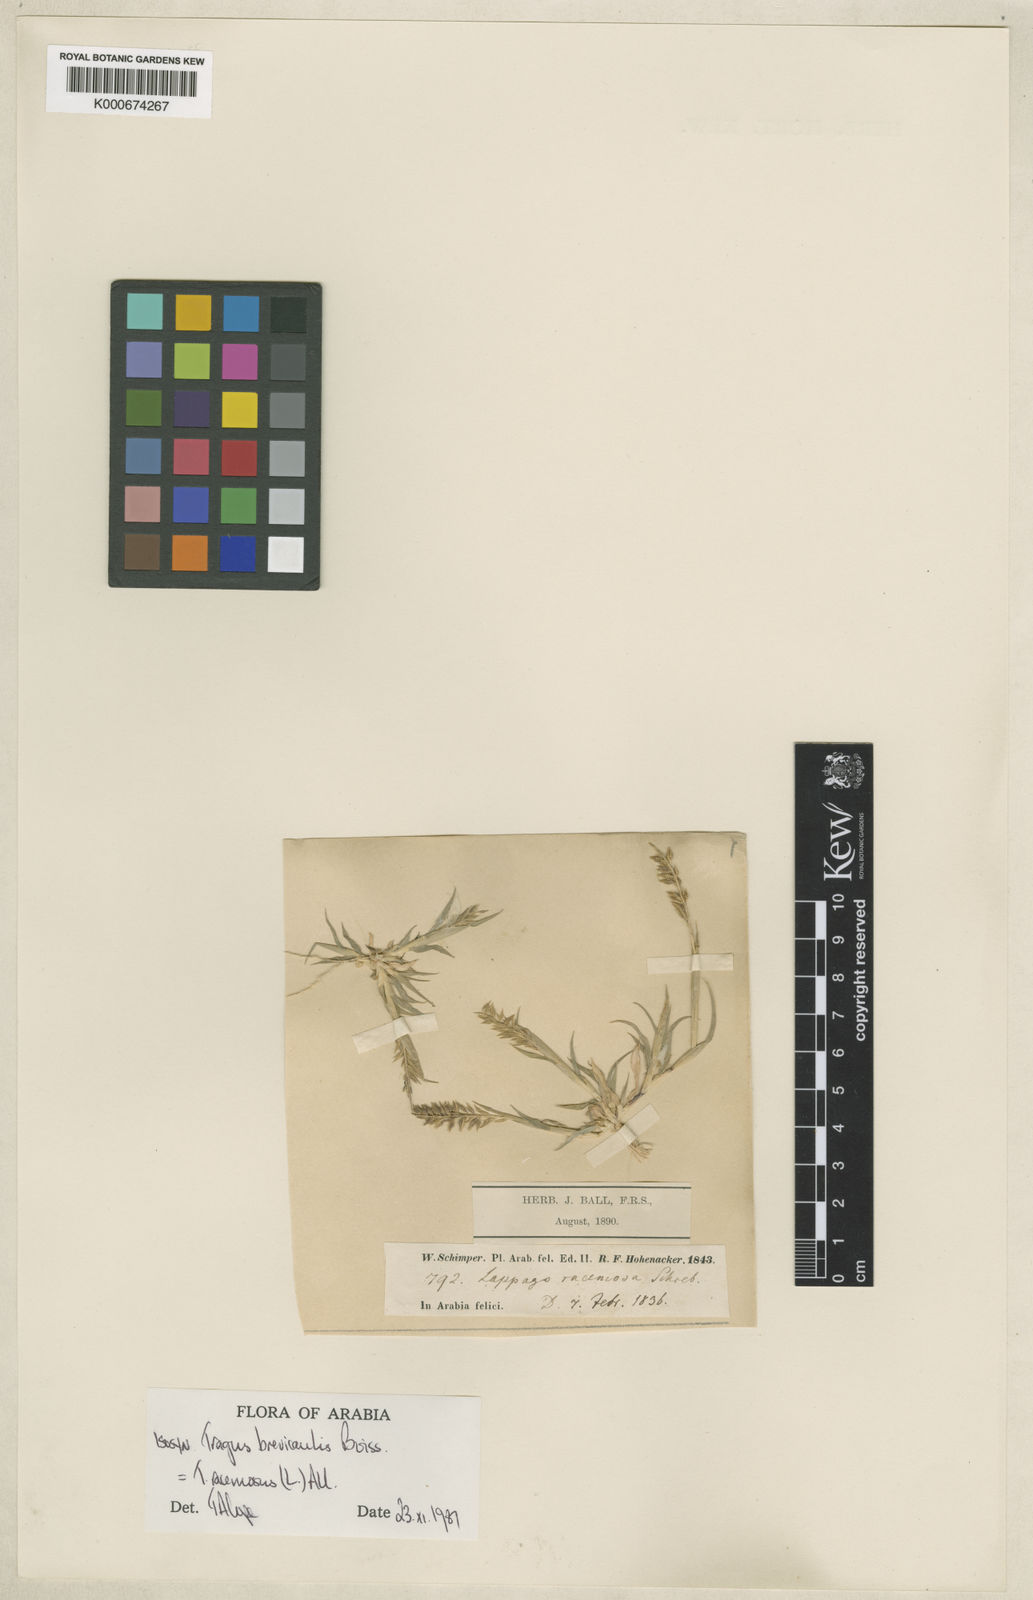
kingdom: Plantae
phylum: Tracheophyta
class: Liliopsida
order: Poales
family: Poaceae
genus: Tragus
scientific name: Tragus racemosus
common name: European bur-grass
